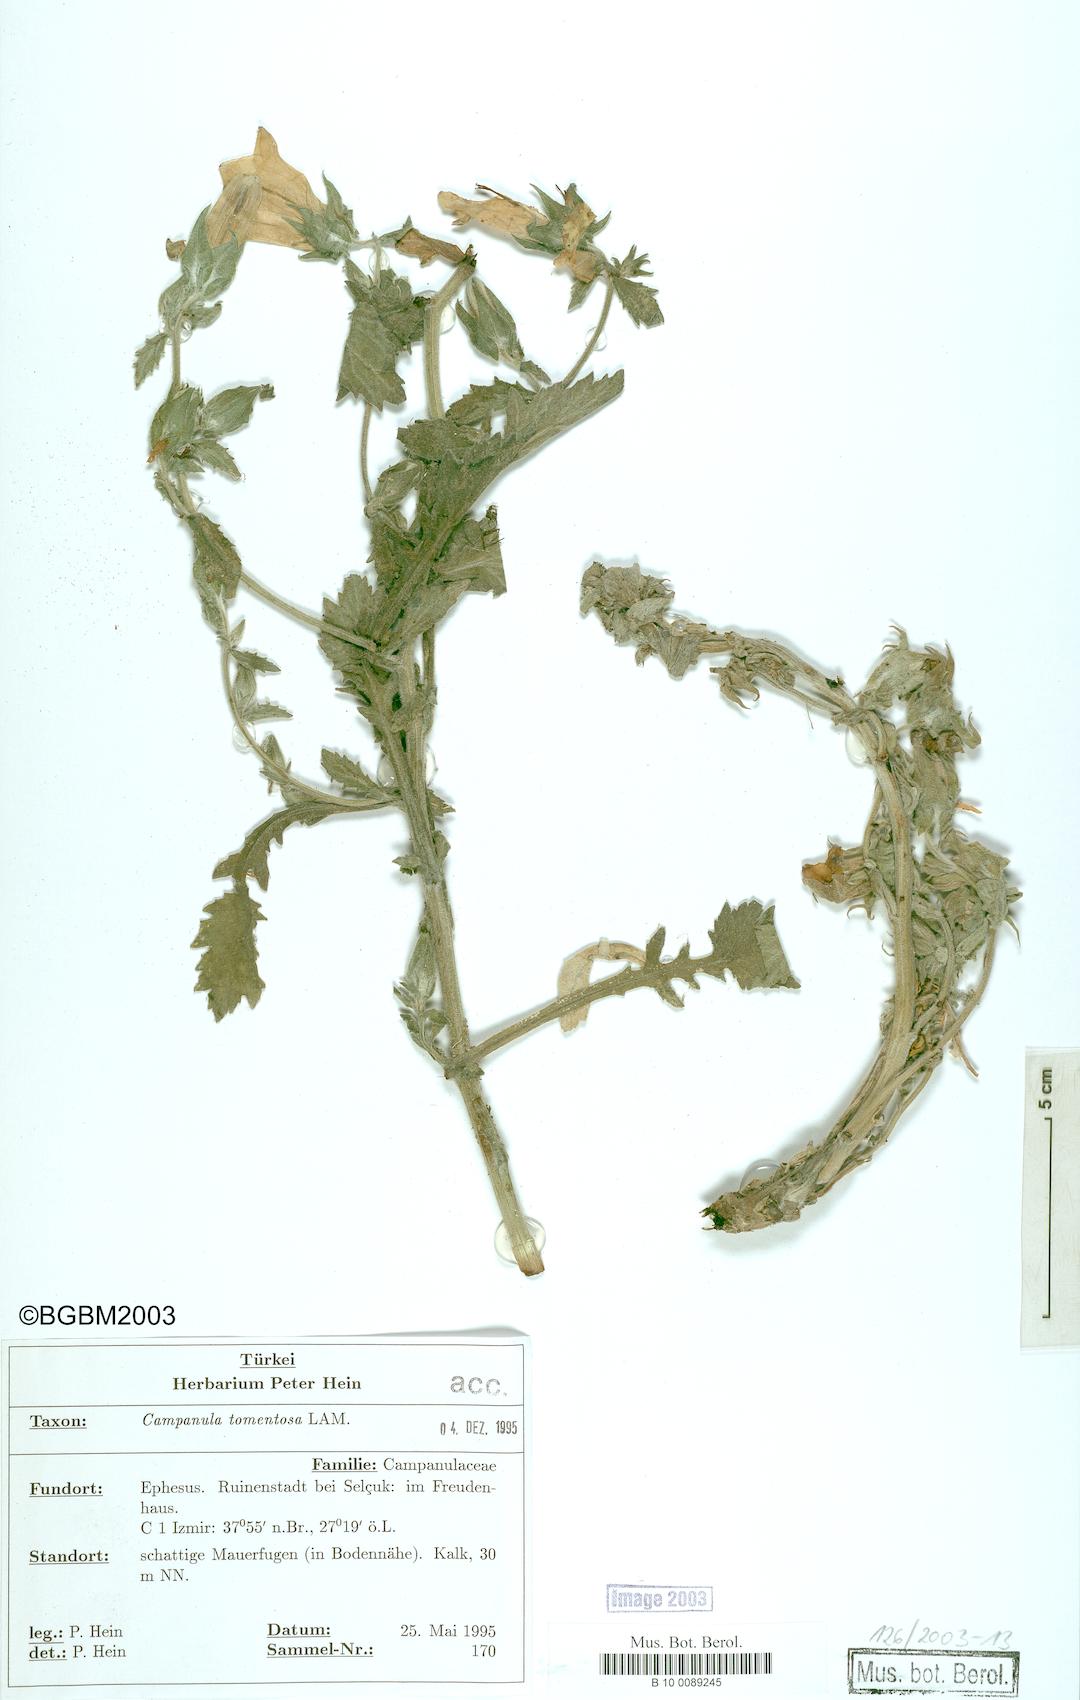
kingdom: Plantae
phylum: Tracheophyta
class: Magnoliopsida
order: Asterales
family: Campanulaceae
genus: Campanula
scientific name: Campanula tomentosa
